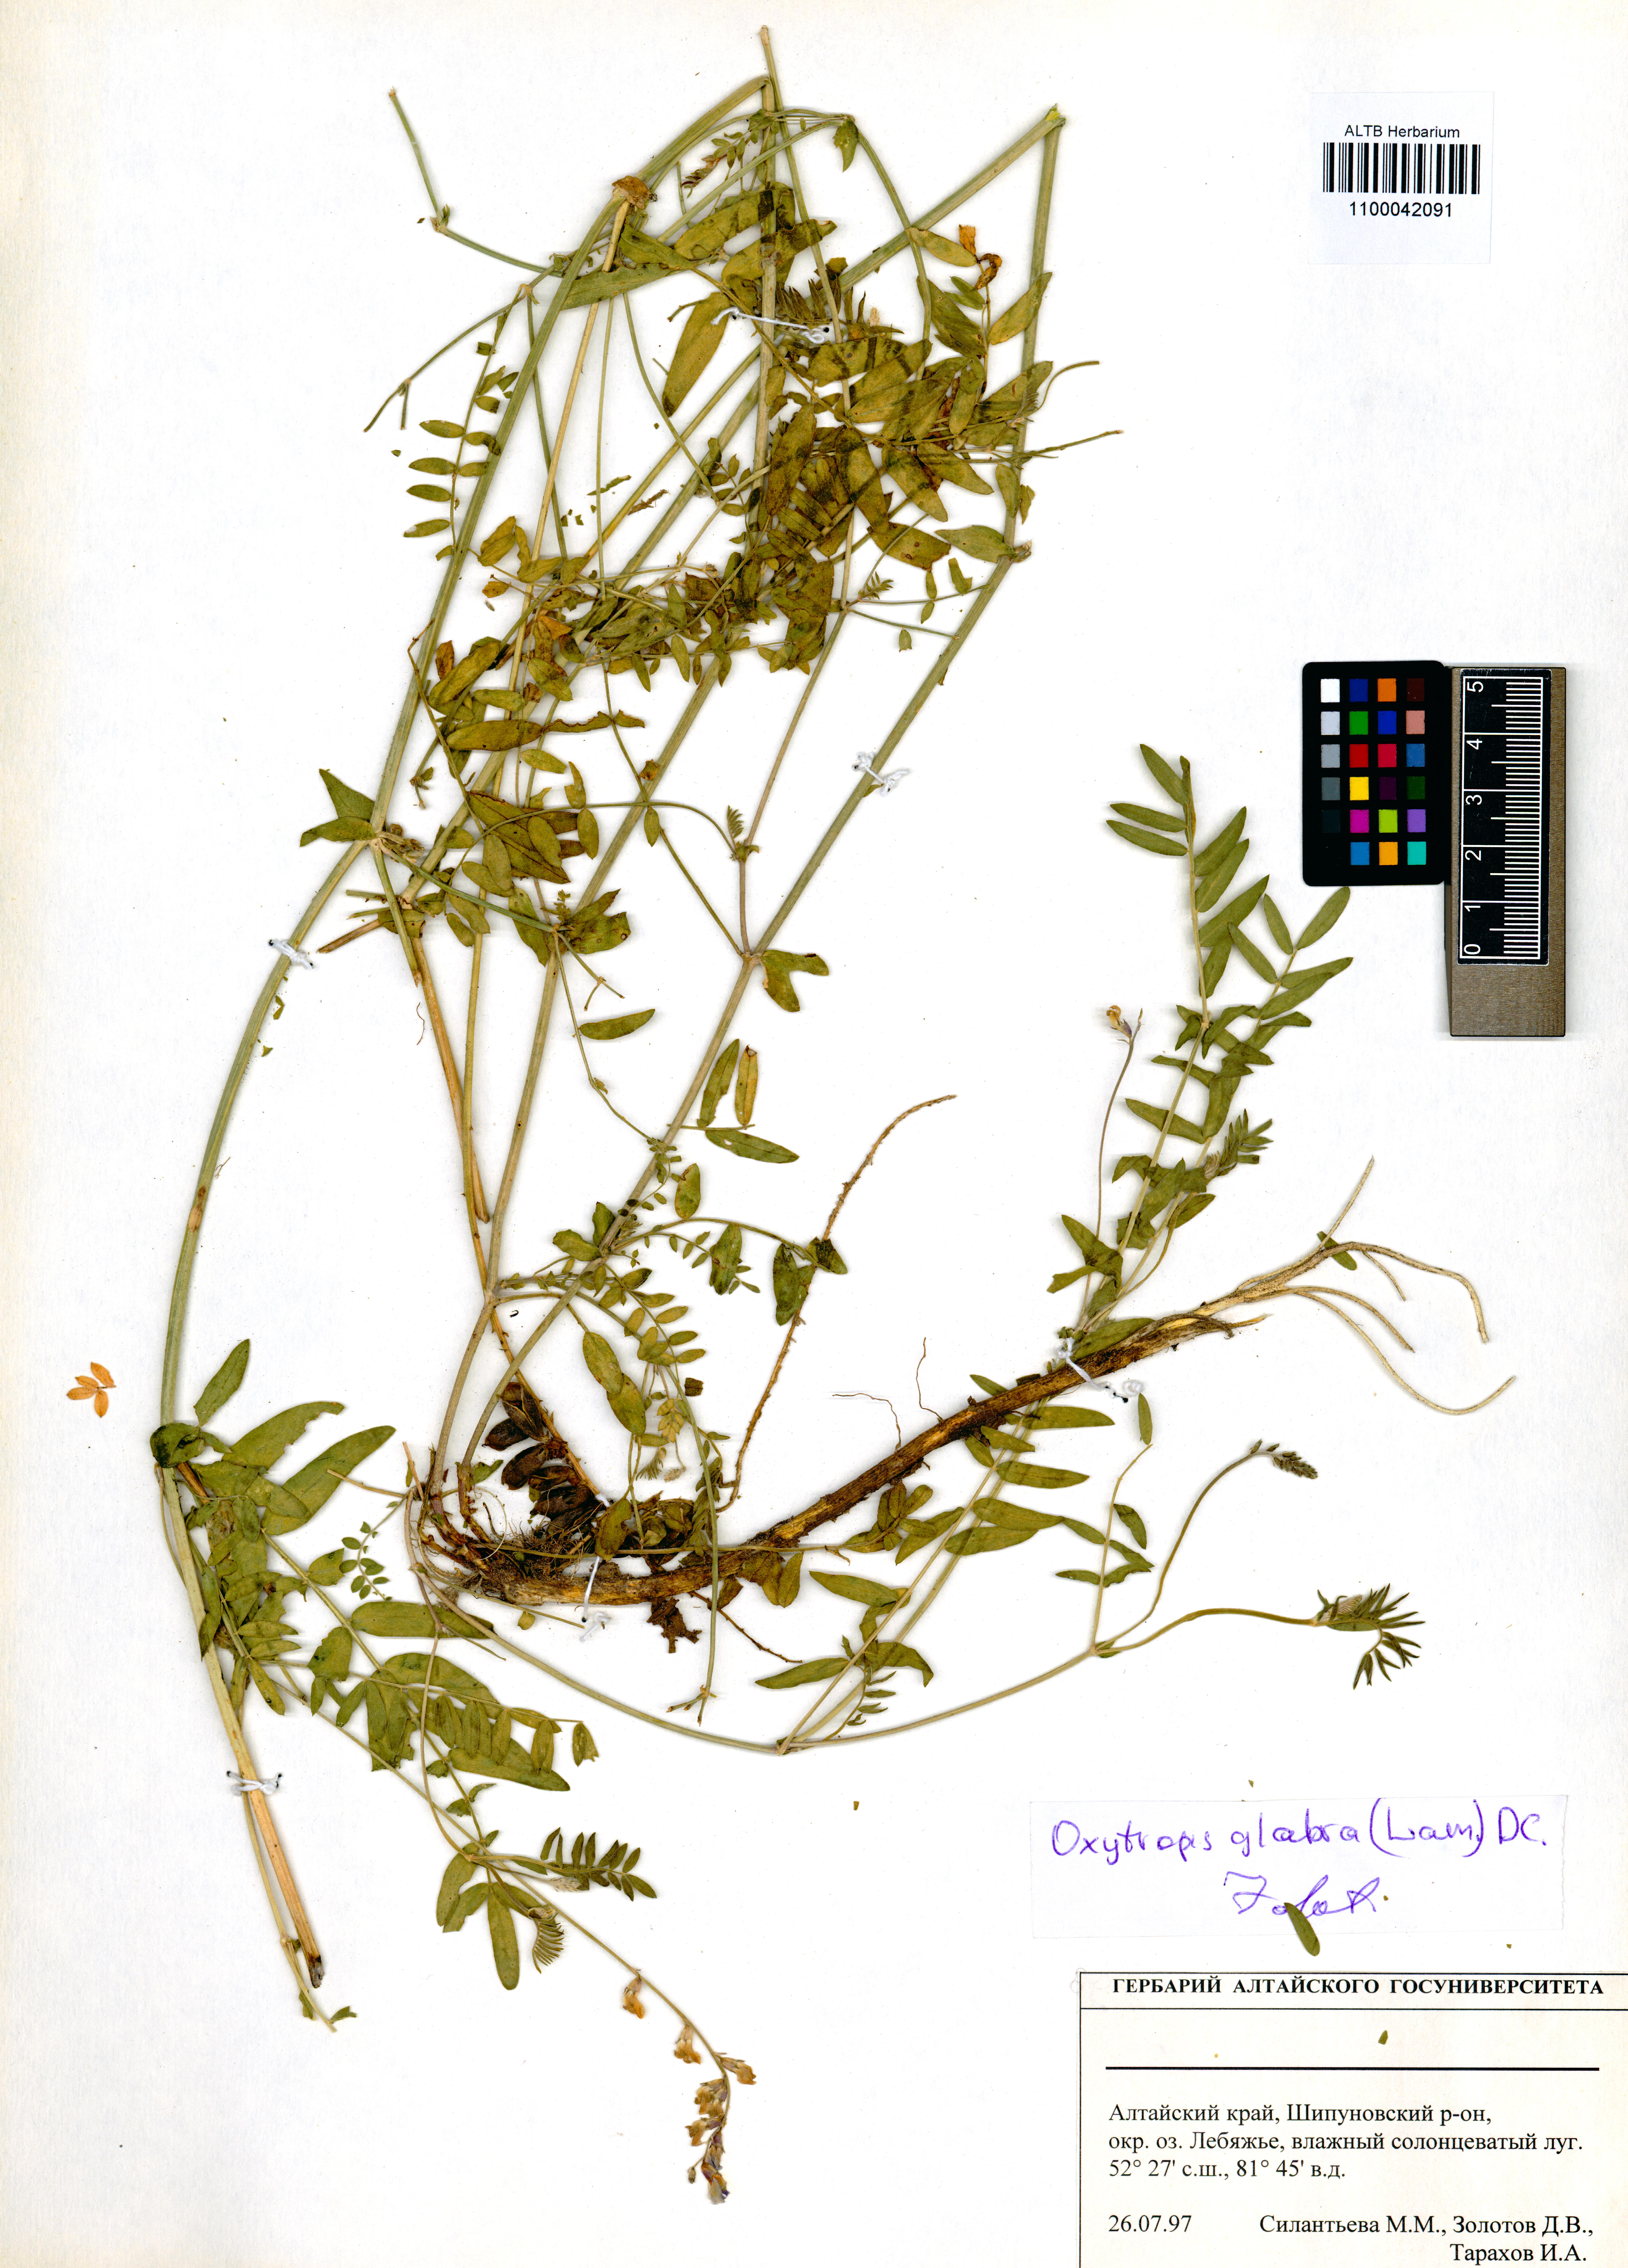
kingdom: Plantae
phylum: Tracheophyta
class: Magnoliopsida
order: Fabales
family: Fabaceae
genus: Oxytropis
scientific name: Oxytropis glabra
